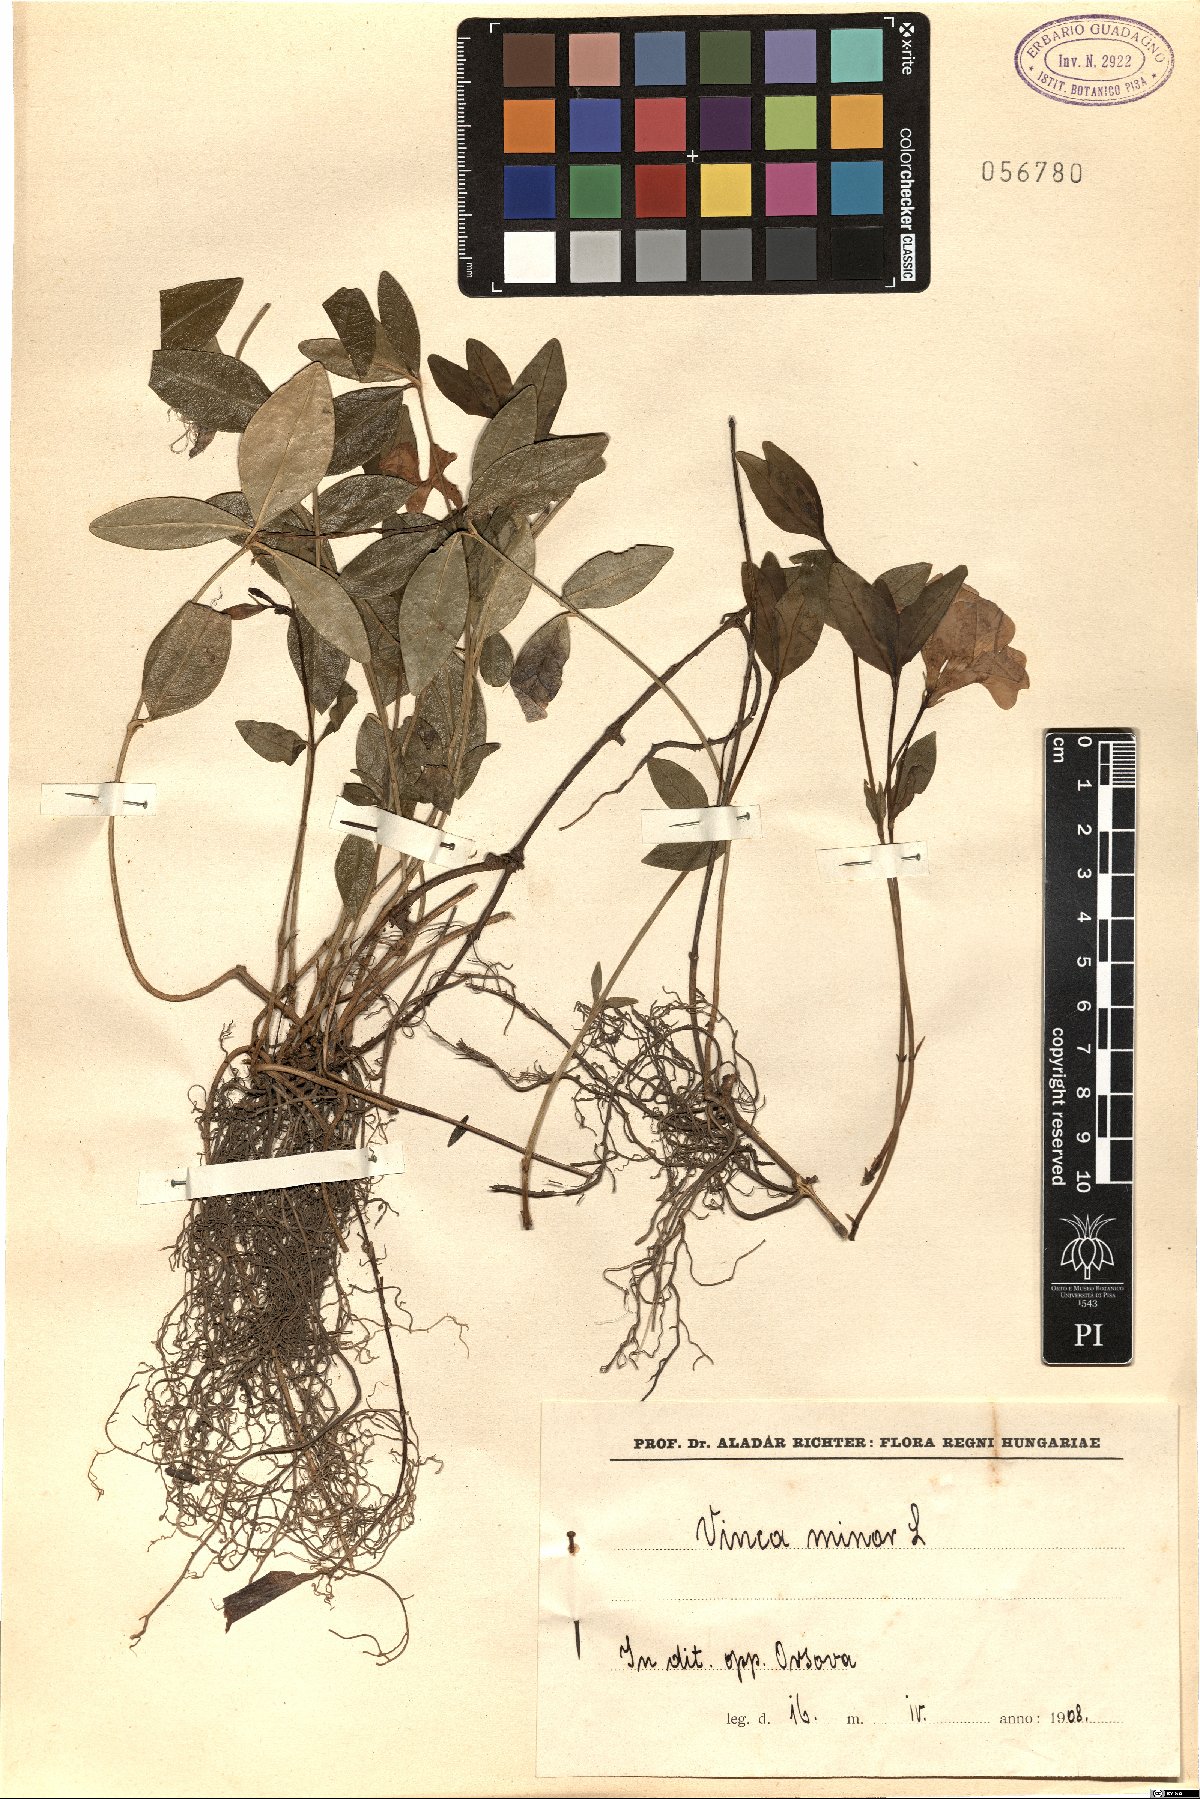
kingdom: Plantae
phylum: Tracheophyta
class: Magnoliopsida
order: Gentianales
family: Apocynaceae
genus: Vinca
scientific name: Vinca minor
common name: Lesser periwinkle
